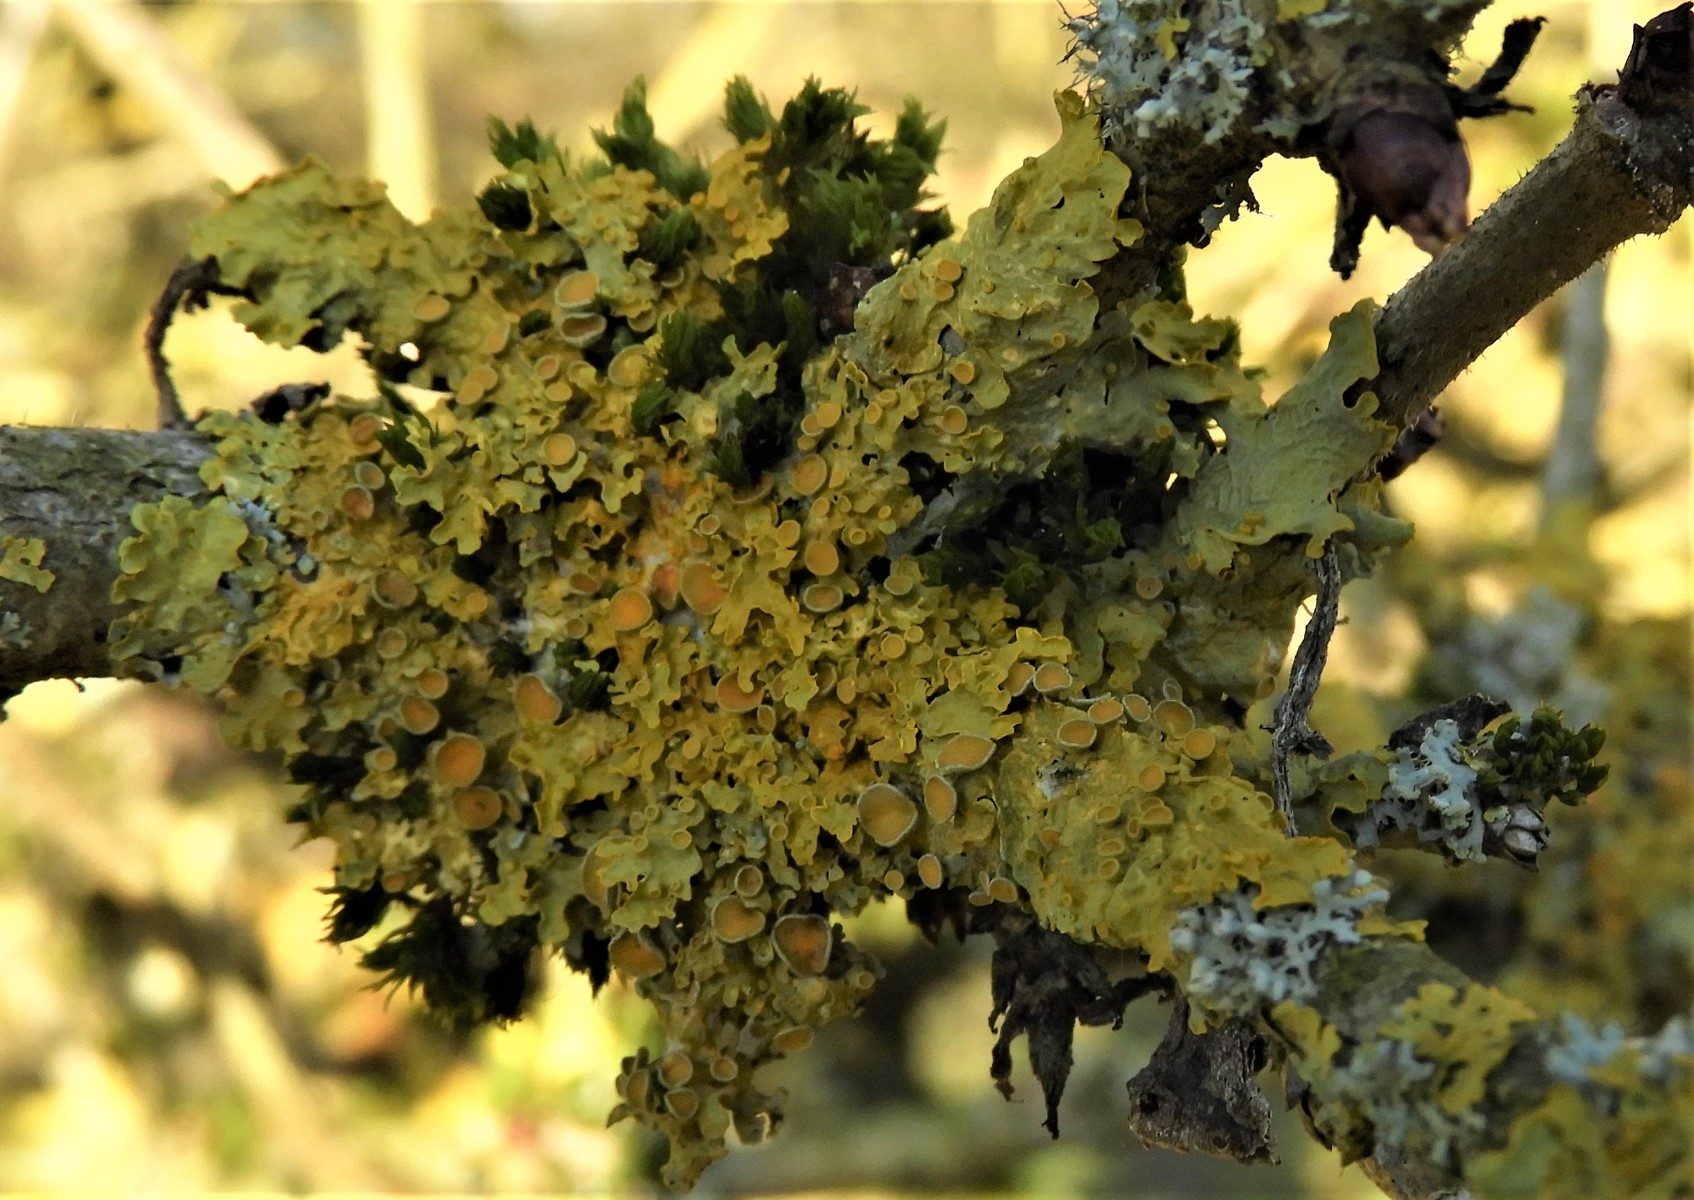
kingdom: Fungi
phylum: Ascomycota
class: Lecanoromycetes
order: Teloschistales
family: Teloschistaceae
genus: Xanthoria
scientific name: Xanthoria parietina
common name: almindelig væggelav
